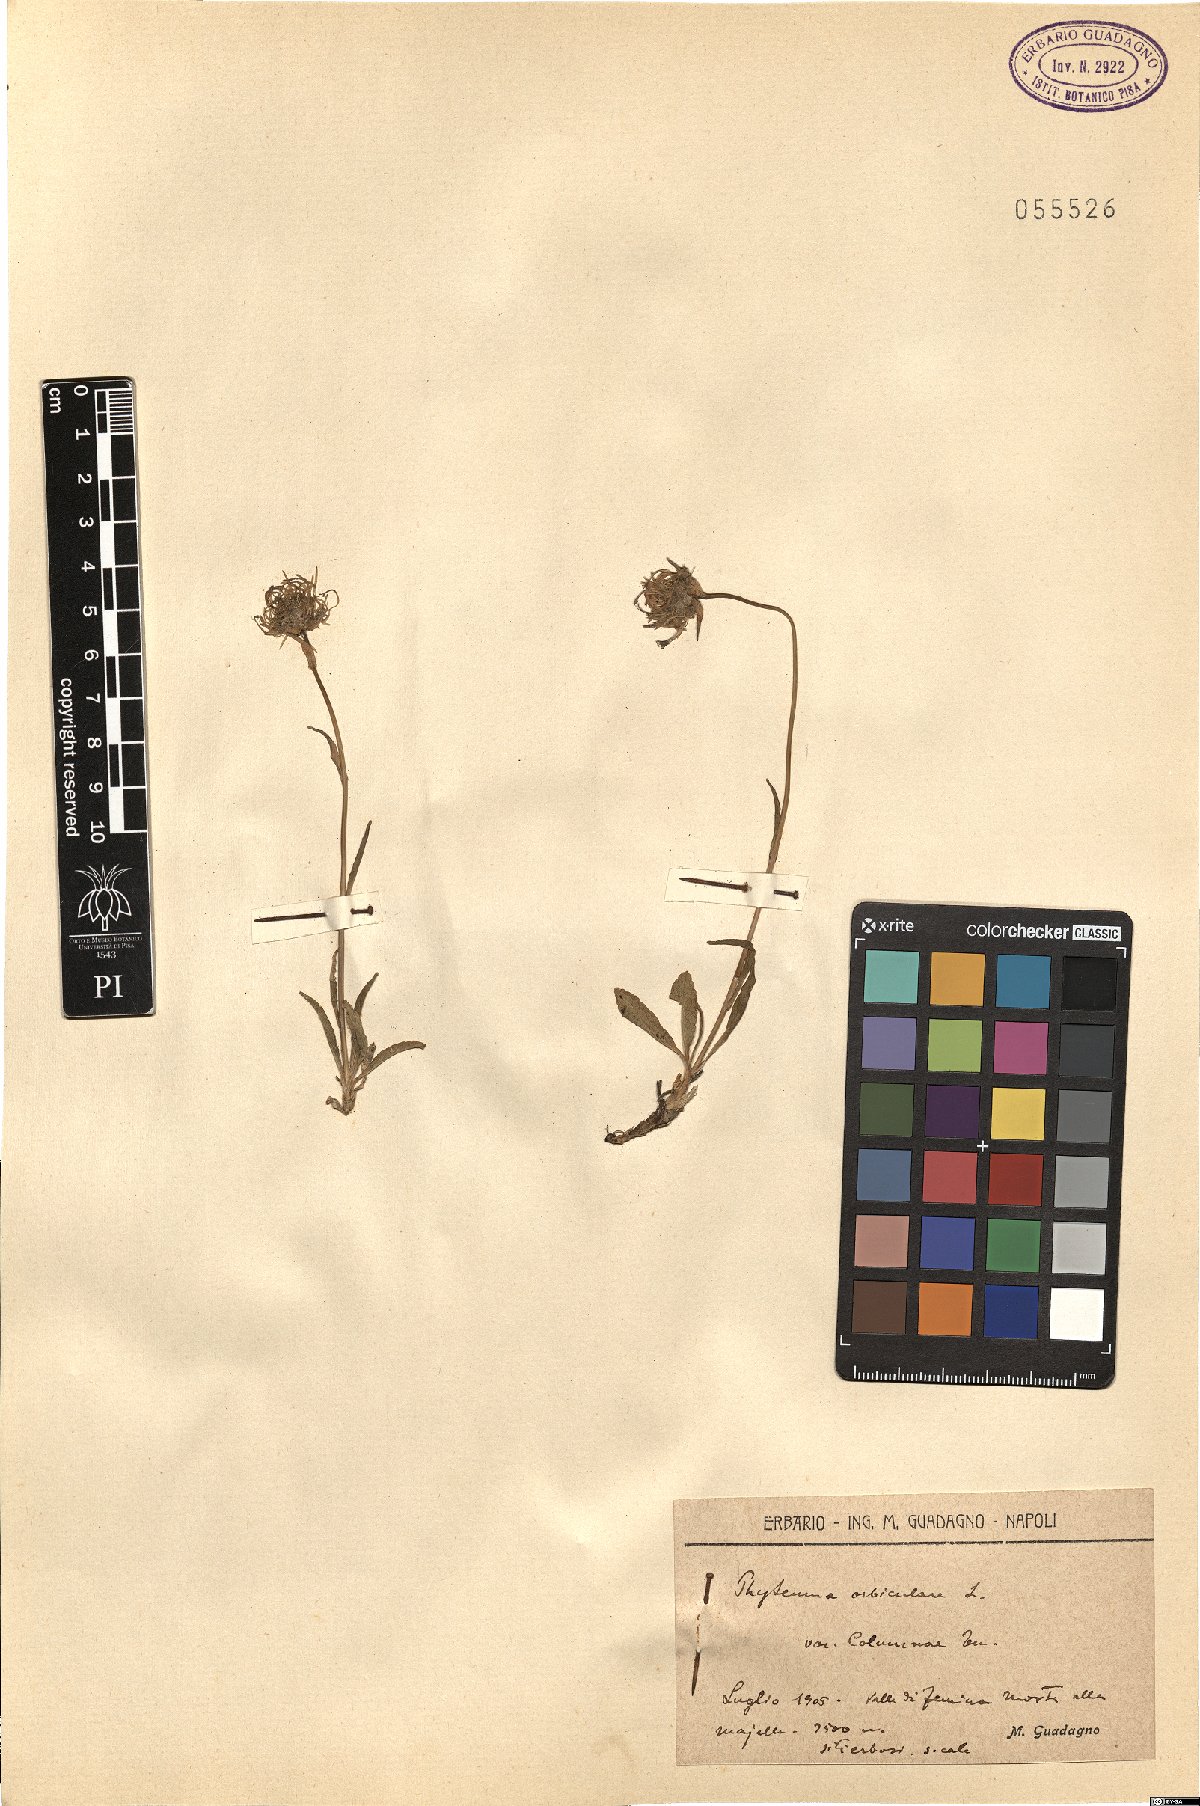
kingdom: Plantae
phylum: Tracheophyta
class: Magnoliopsida
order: Asterales
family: Campanulaceae
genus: Phyteuma
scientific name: Phyteuma orbiculare
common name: Round-headed rampion
